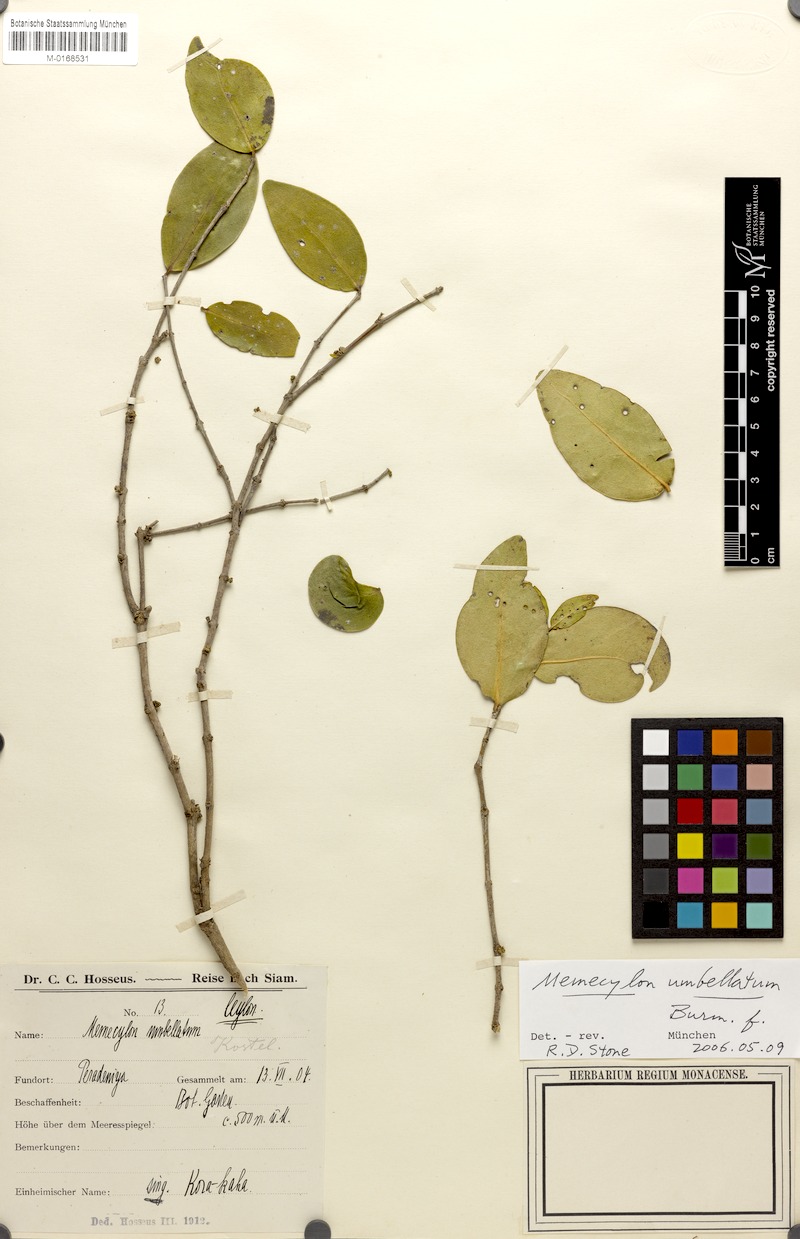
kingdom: Plantae
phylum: Tracheophyta
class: Magnoliopsida
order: Myrtales
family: Melastomataceae
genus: Memecylon
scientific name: Memecylon umbellatum
